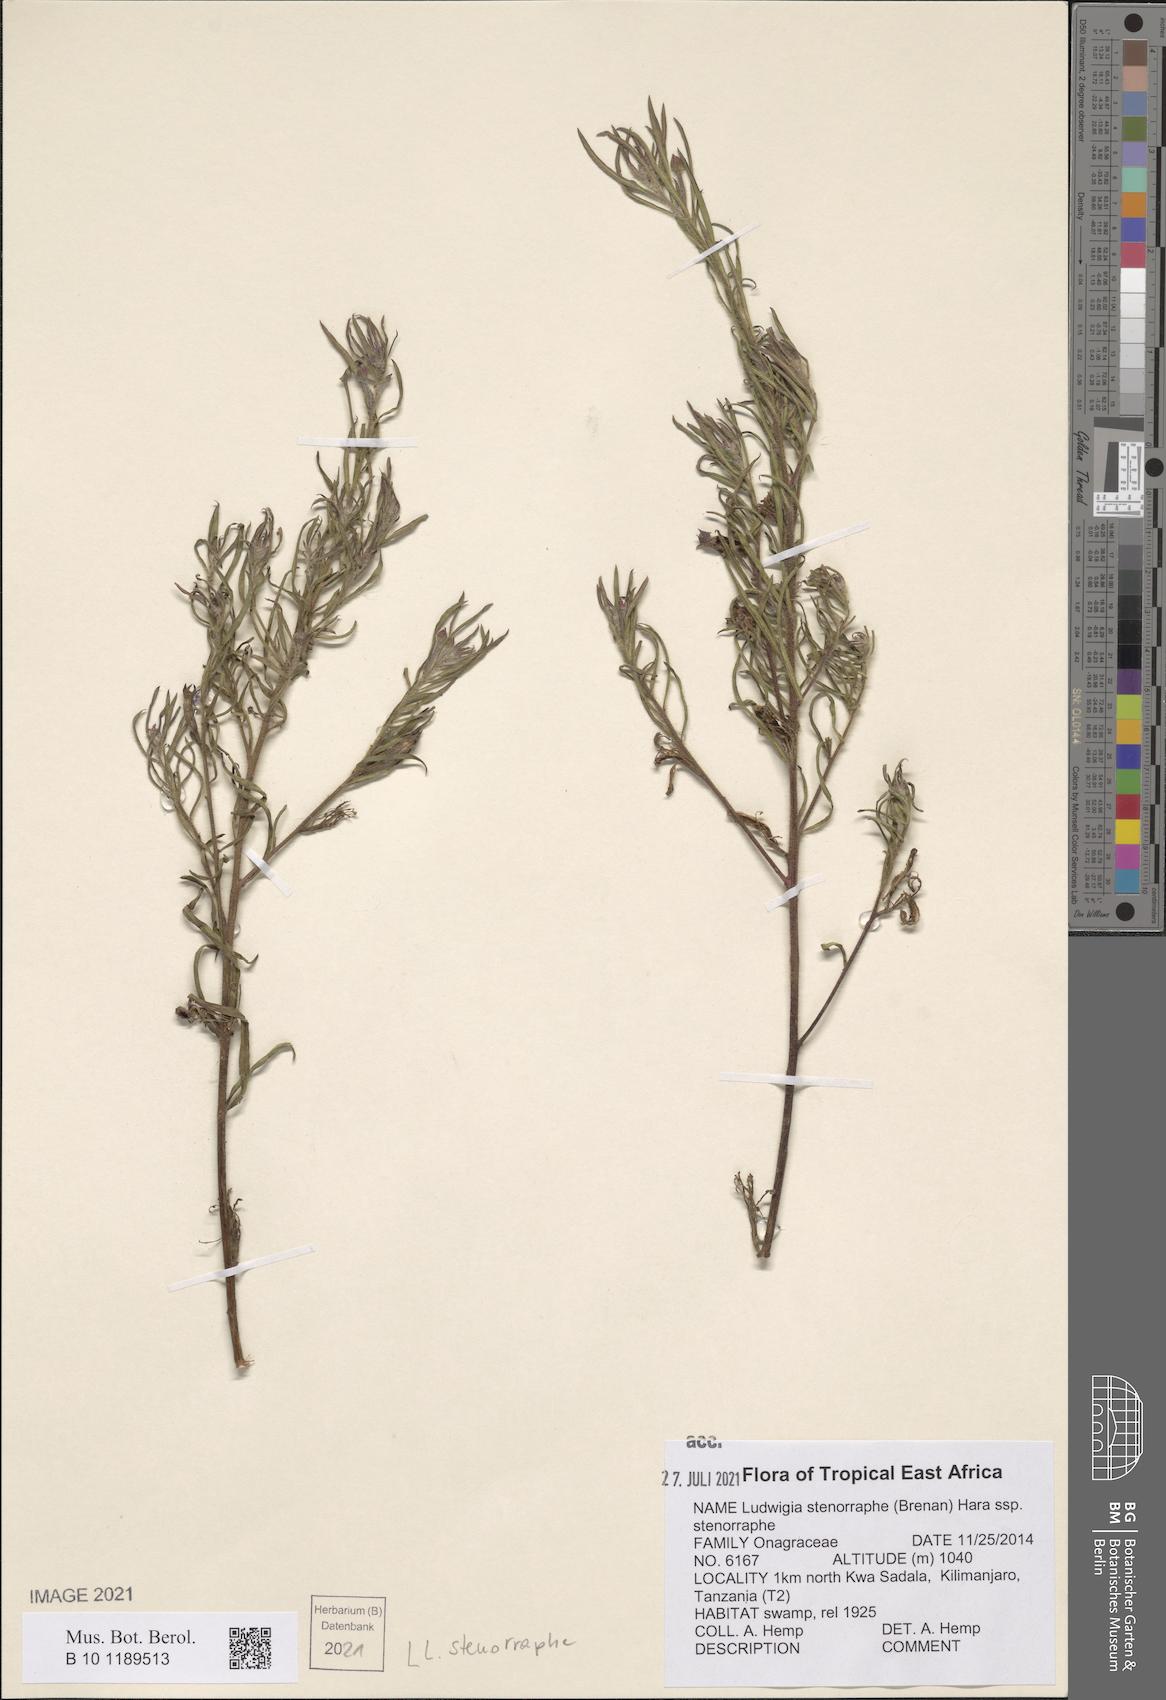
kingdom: Plantae
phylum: Tracheophyta
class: Magnoliopsida
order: Myrtales
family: Onagraceae
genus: Ludwigia
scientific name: Ludwigia stenorraphe
